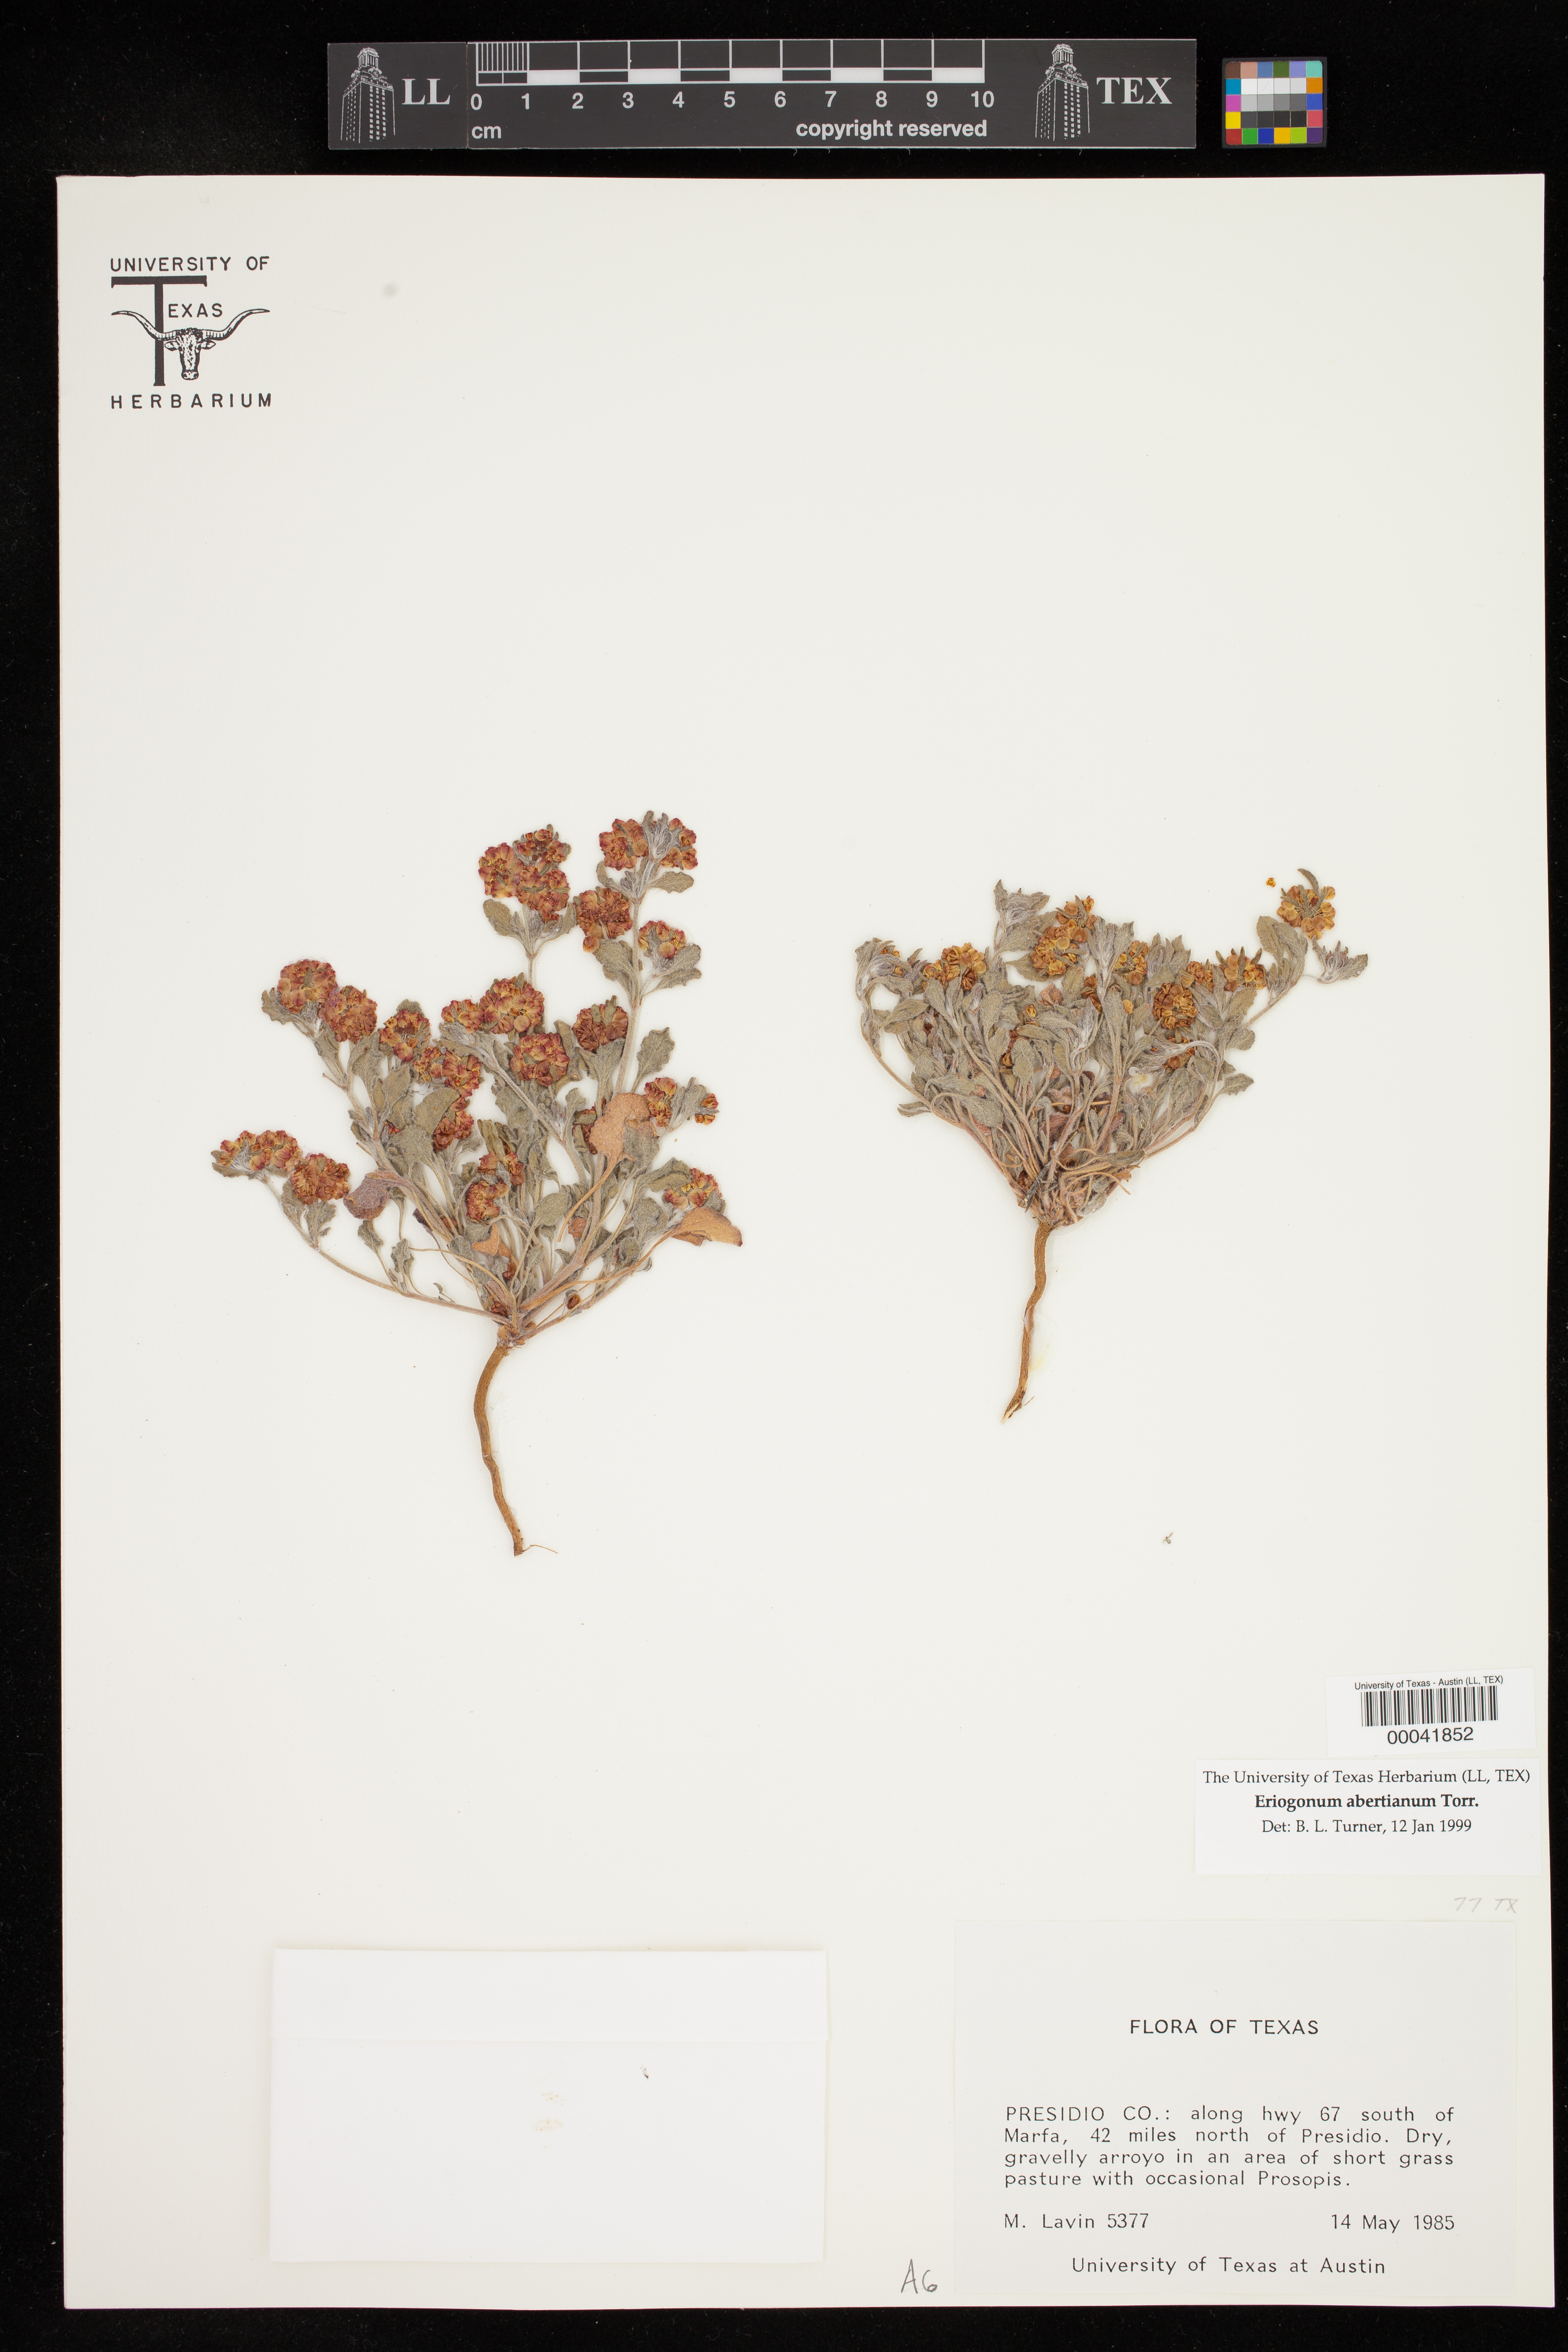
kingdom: Plantae
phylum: Tracheophyta
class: Magnoliopsida
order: Caryophyllales
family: Polygonaceae
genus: Eriogonum
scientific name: Eriogonum abertianum
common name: Abert's wild buckwheat
